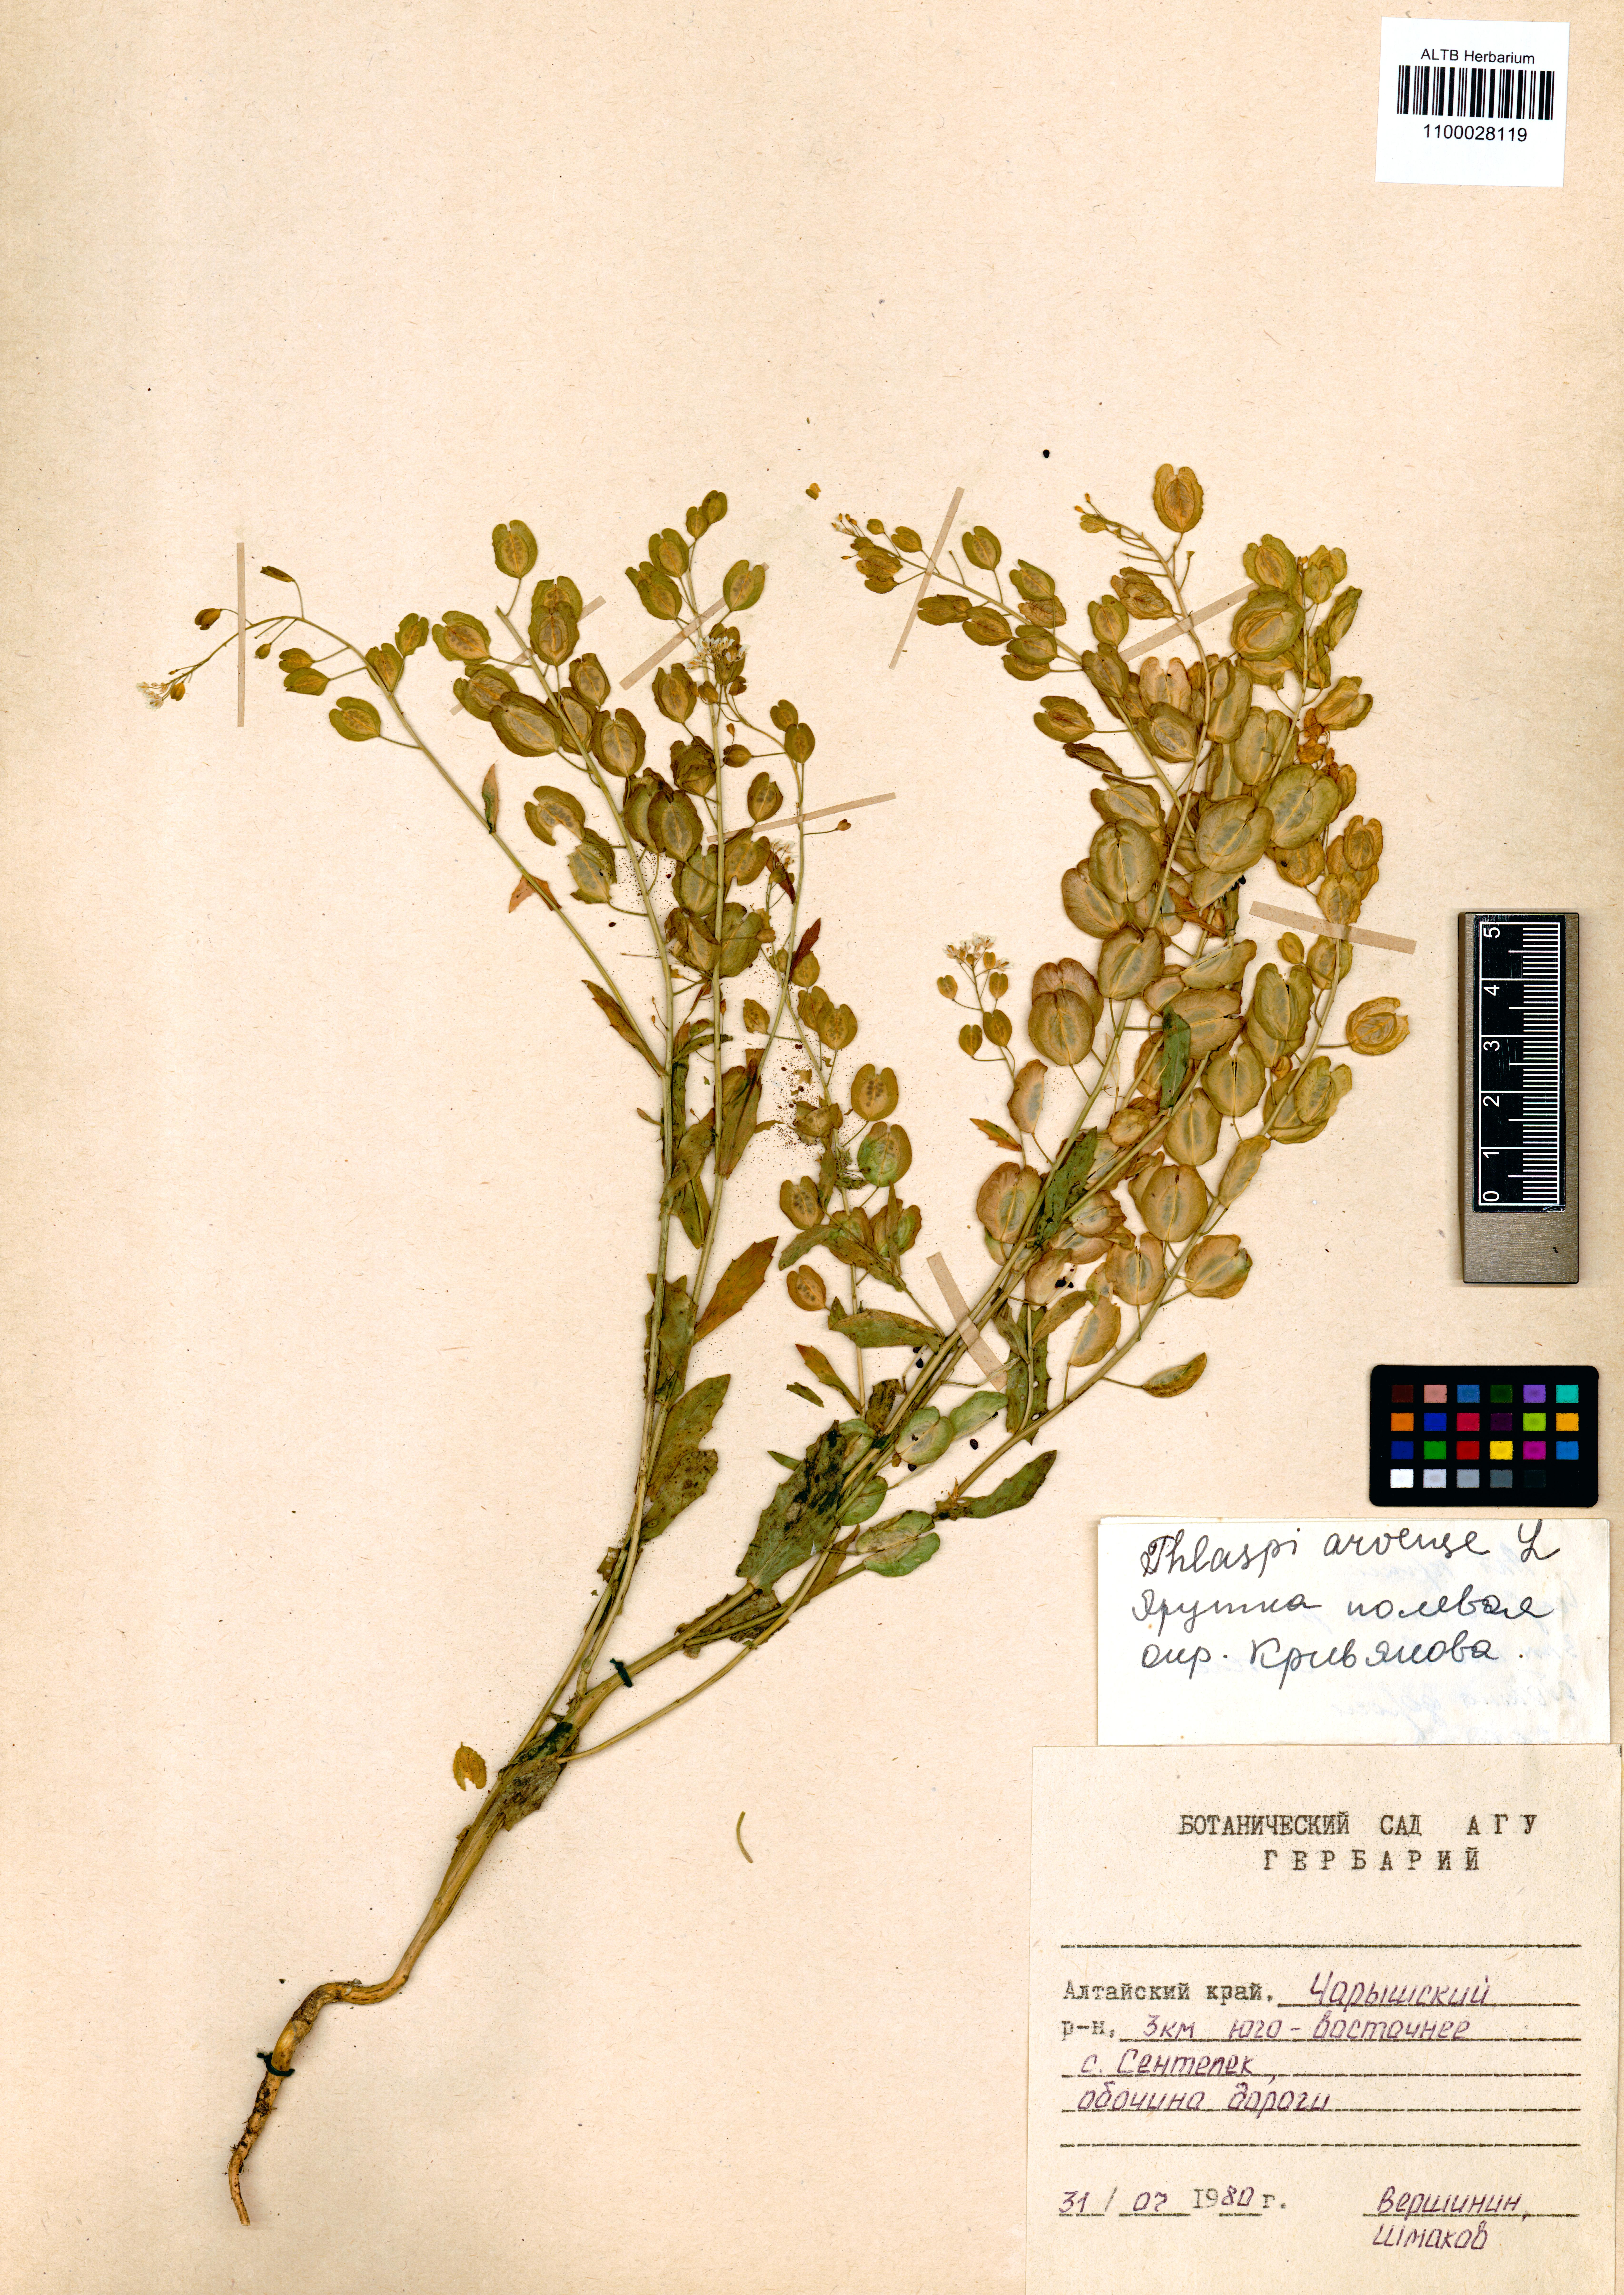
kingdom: Plantae
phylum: Tracheophyta
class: Magnoliopsida
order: Brassicales
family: Brassicaceae
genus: Thlaspi
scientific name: Thlaspi arvense
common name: Field pennycress
